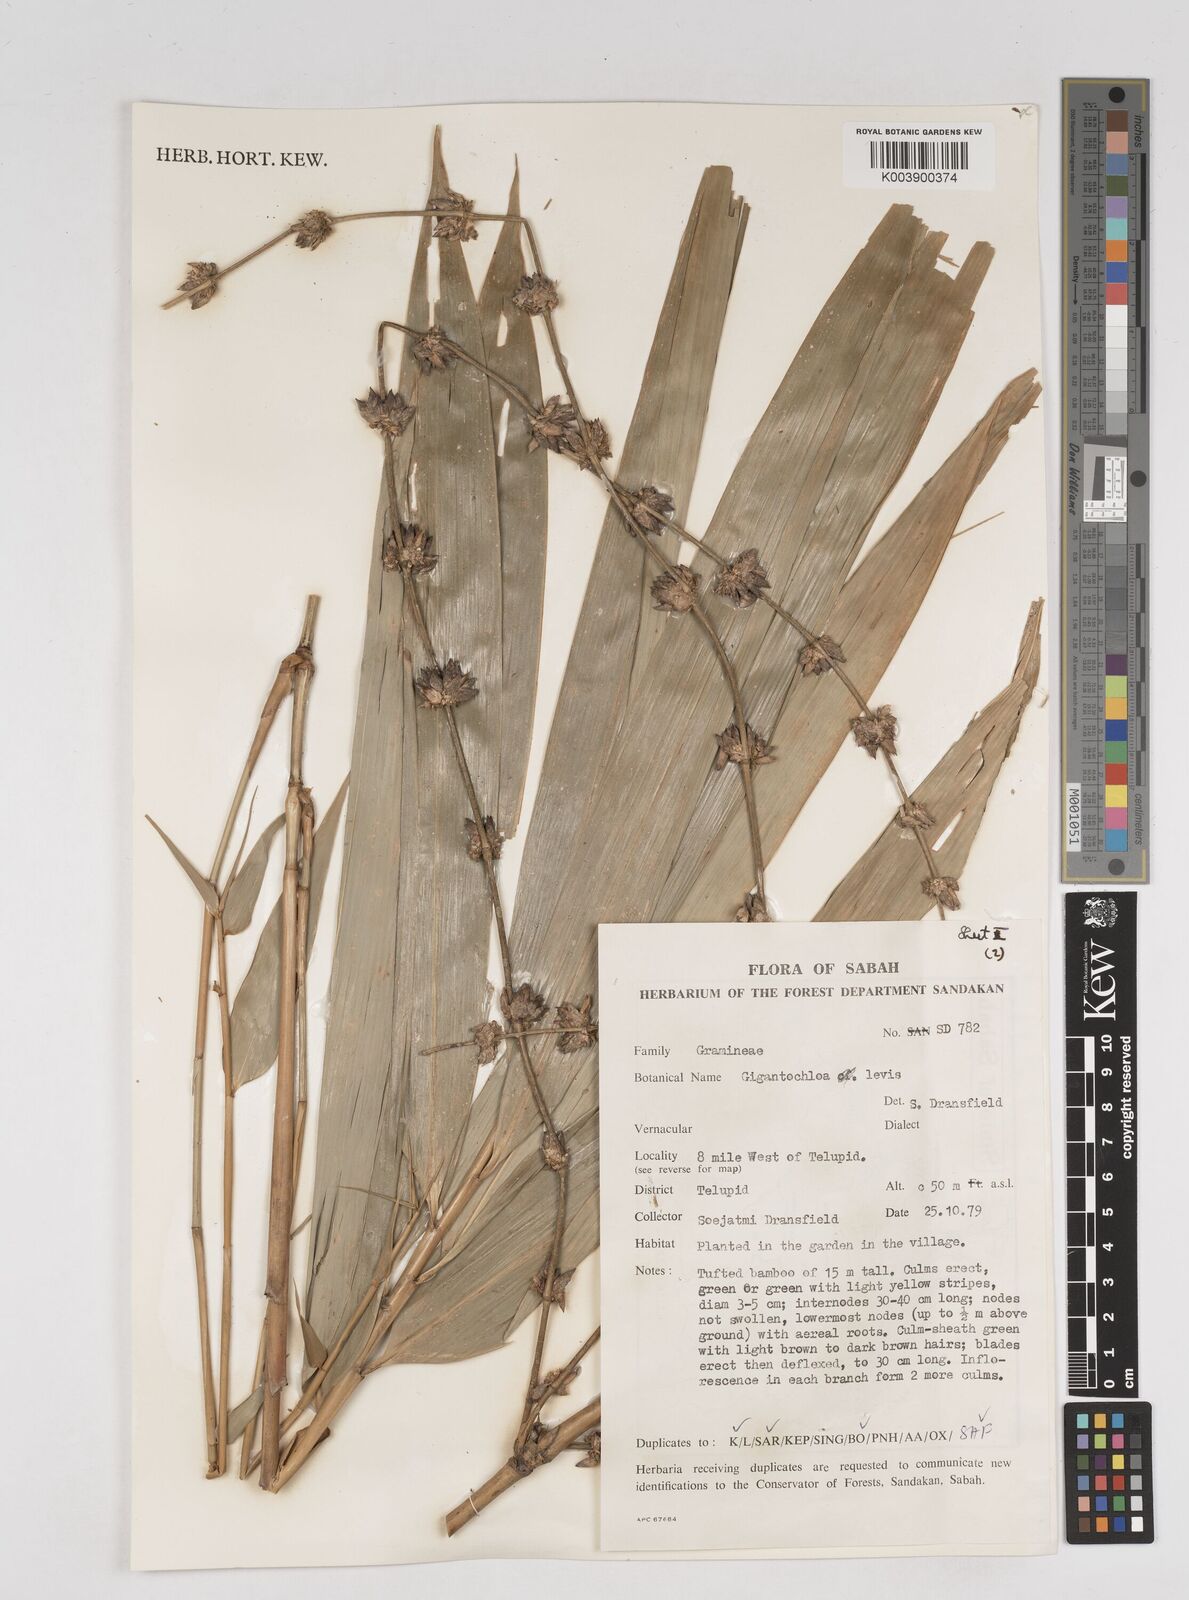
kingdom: Plantae
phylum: Tracheophyta
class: Liliopsida
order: Poales
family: Poaceae
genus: Gigantochloa
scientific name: Gigantochloa levis
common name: Smooth-shoot gigantochloa
